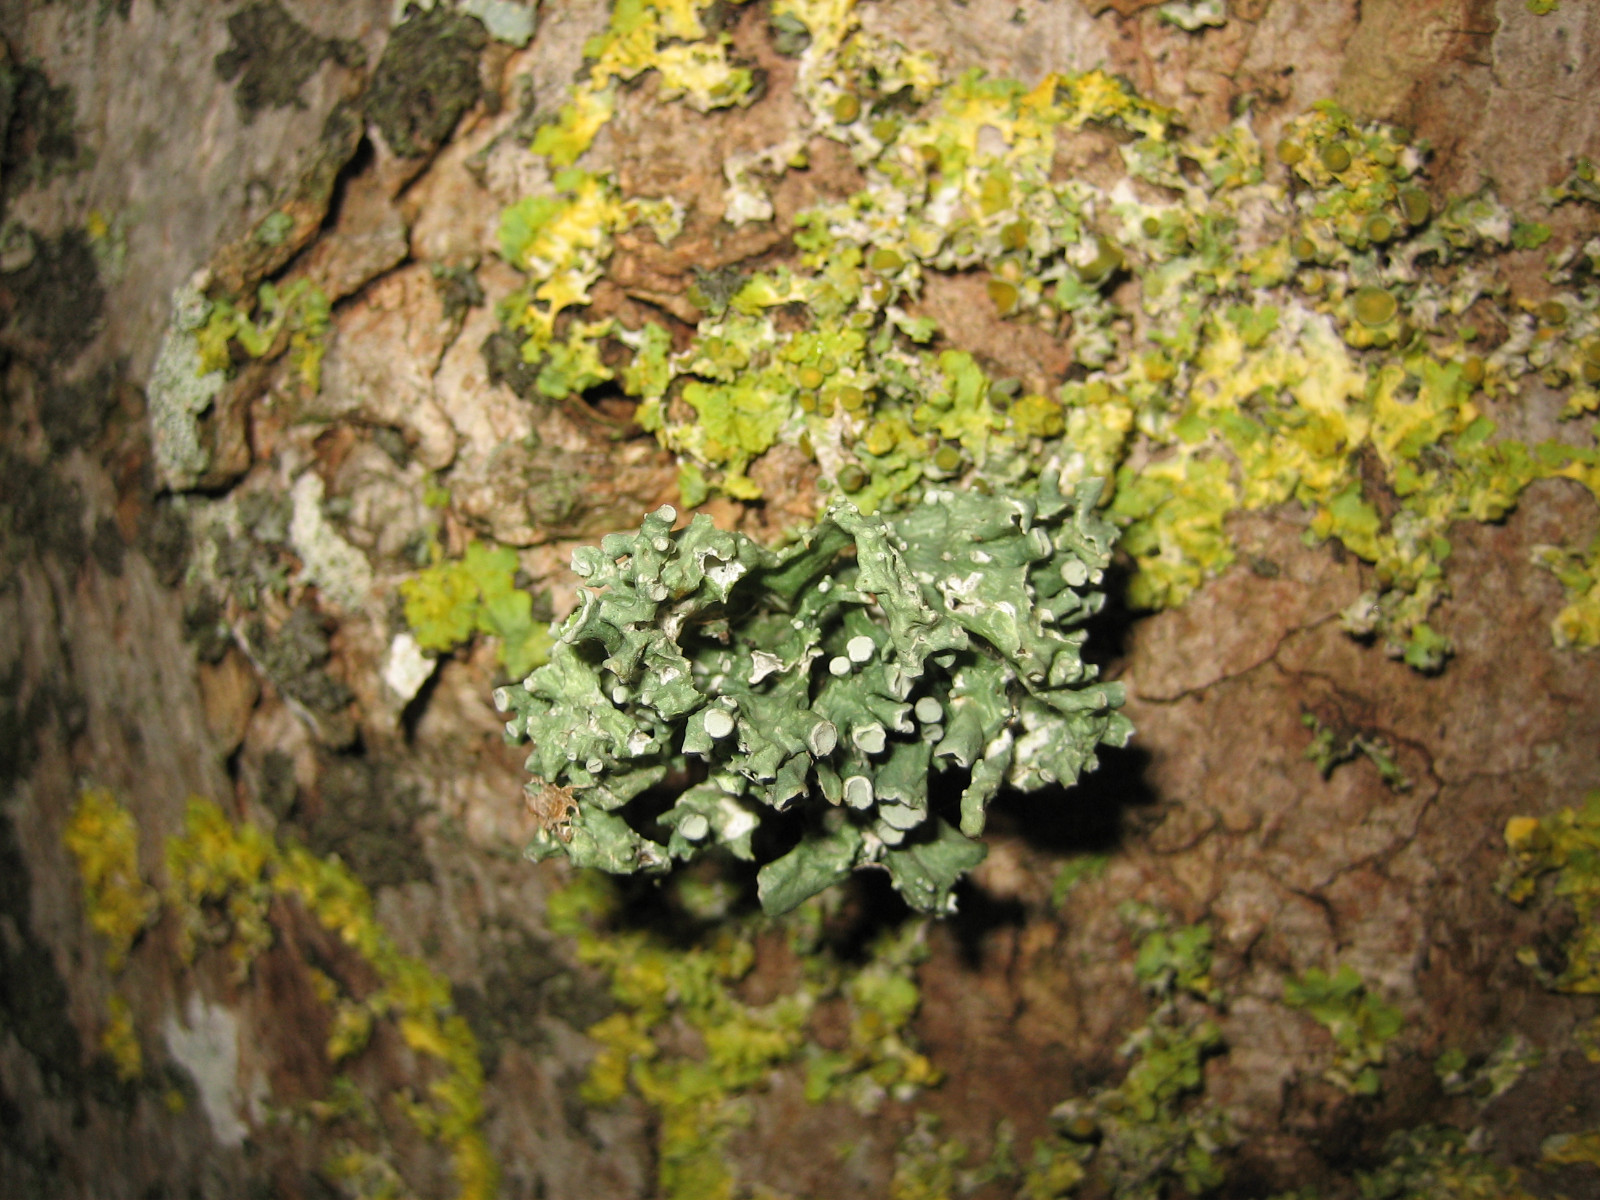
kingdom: Fungi
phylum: Ascomycota
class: Lecanoromycetes
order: Lecanorales
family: Ramalinaceae
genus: Ramalina
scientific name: Ramalina fastigiata
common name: tue-grenlav
